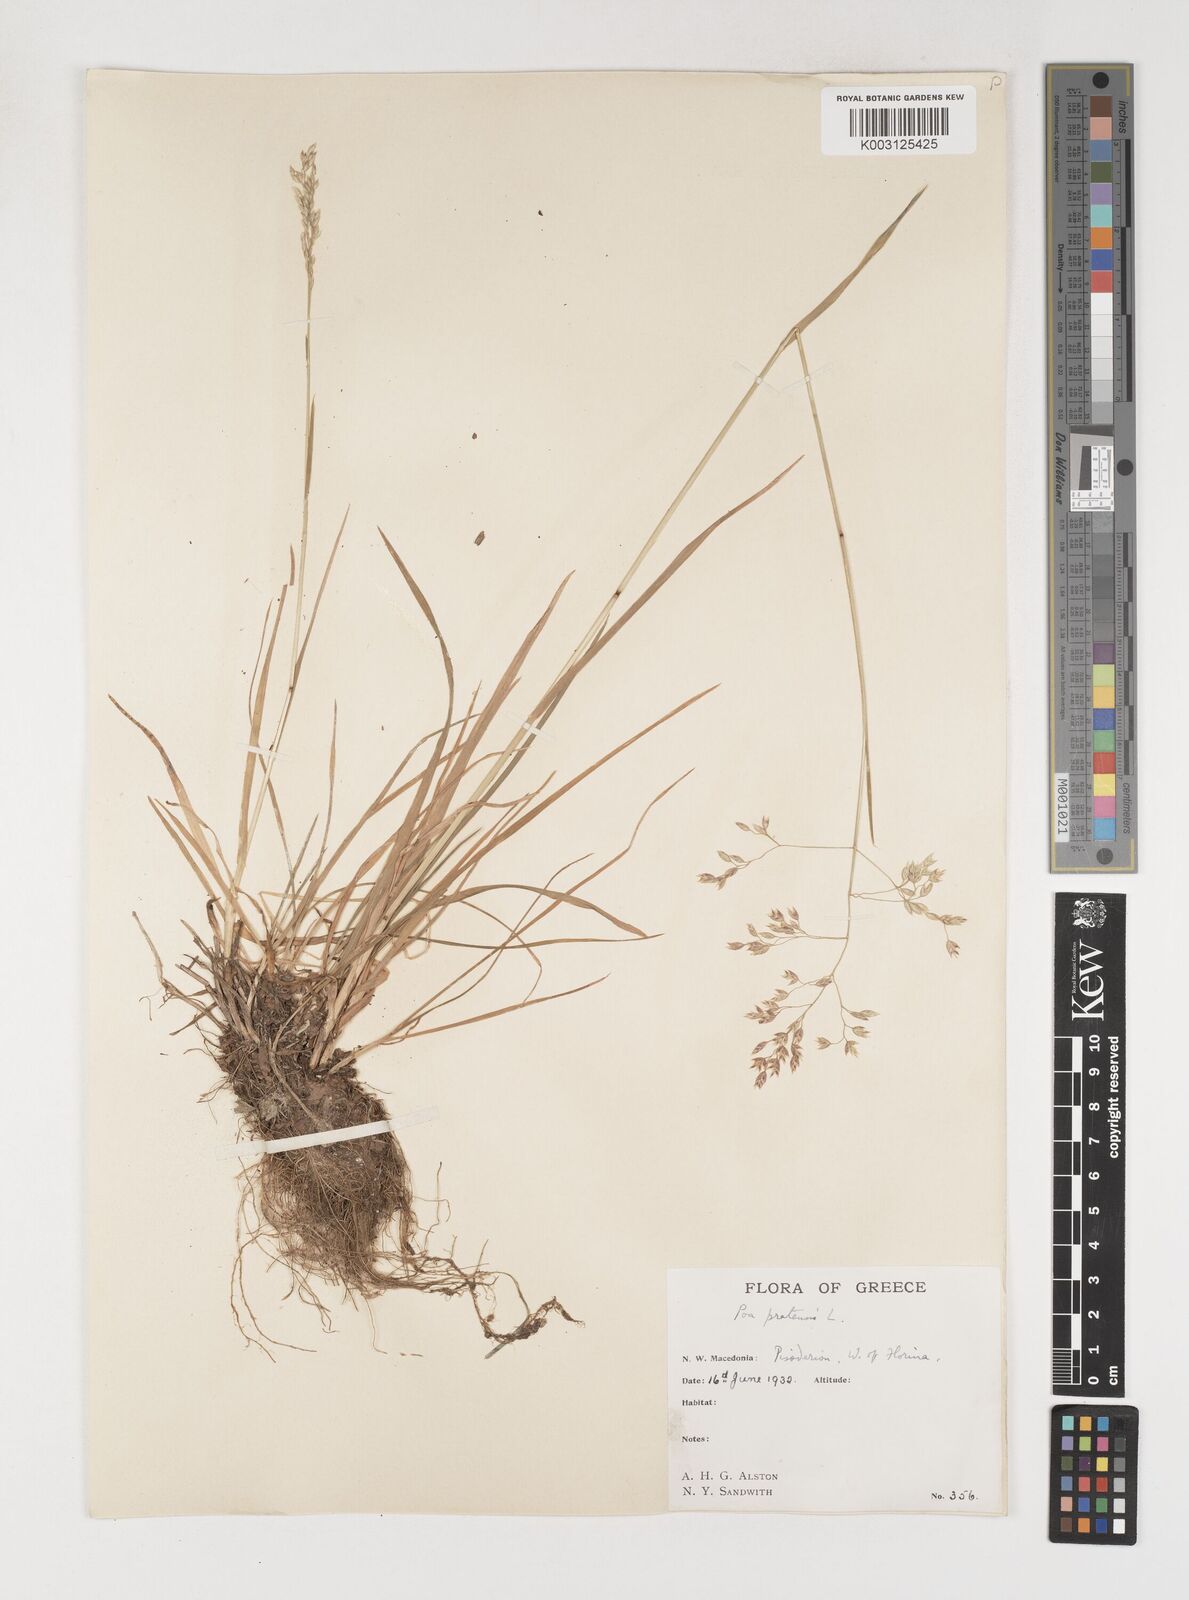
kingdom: Plantae
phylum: Tracheophyta
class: Liliopsida
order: Poales
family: Poaceae
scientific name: Poaceae
